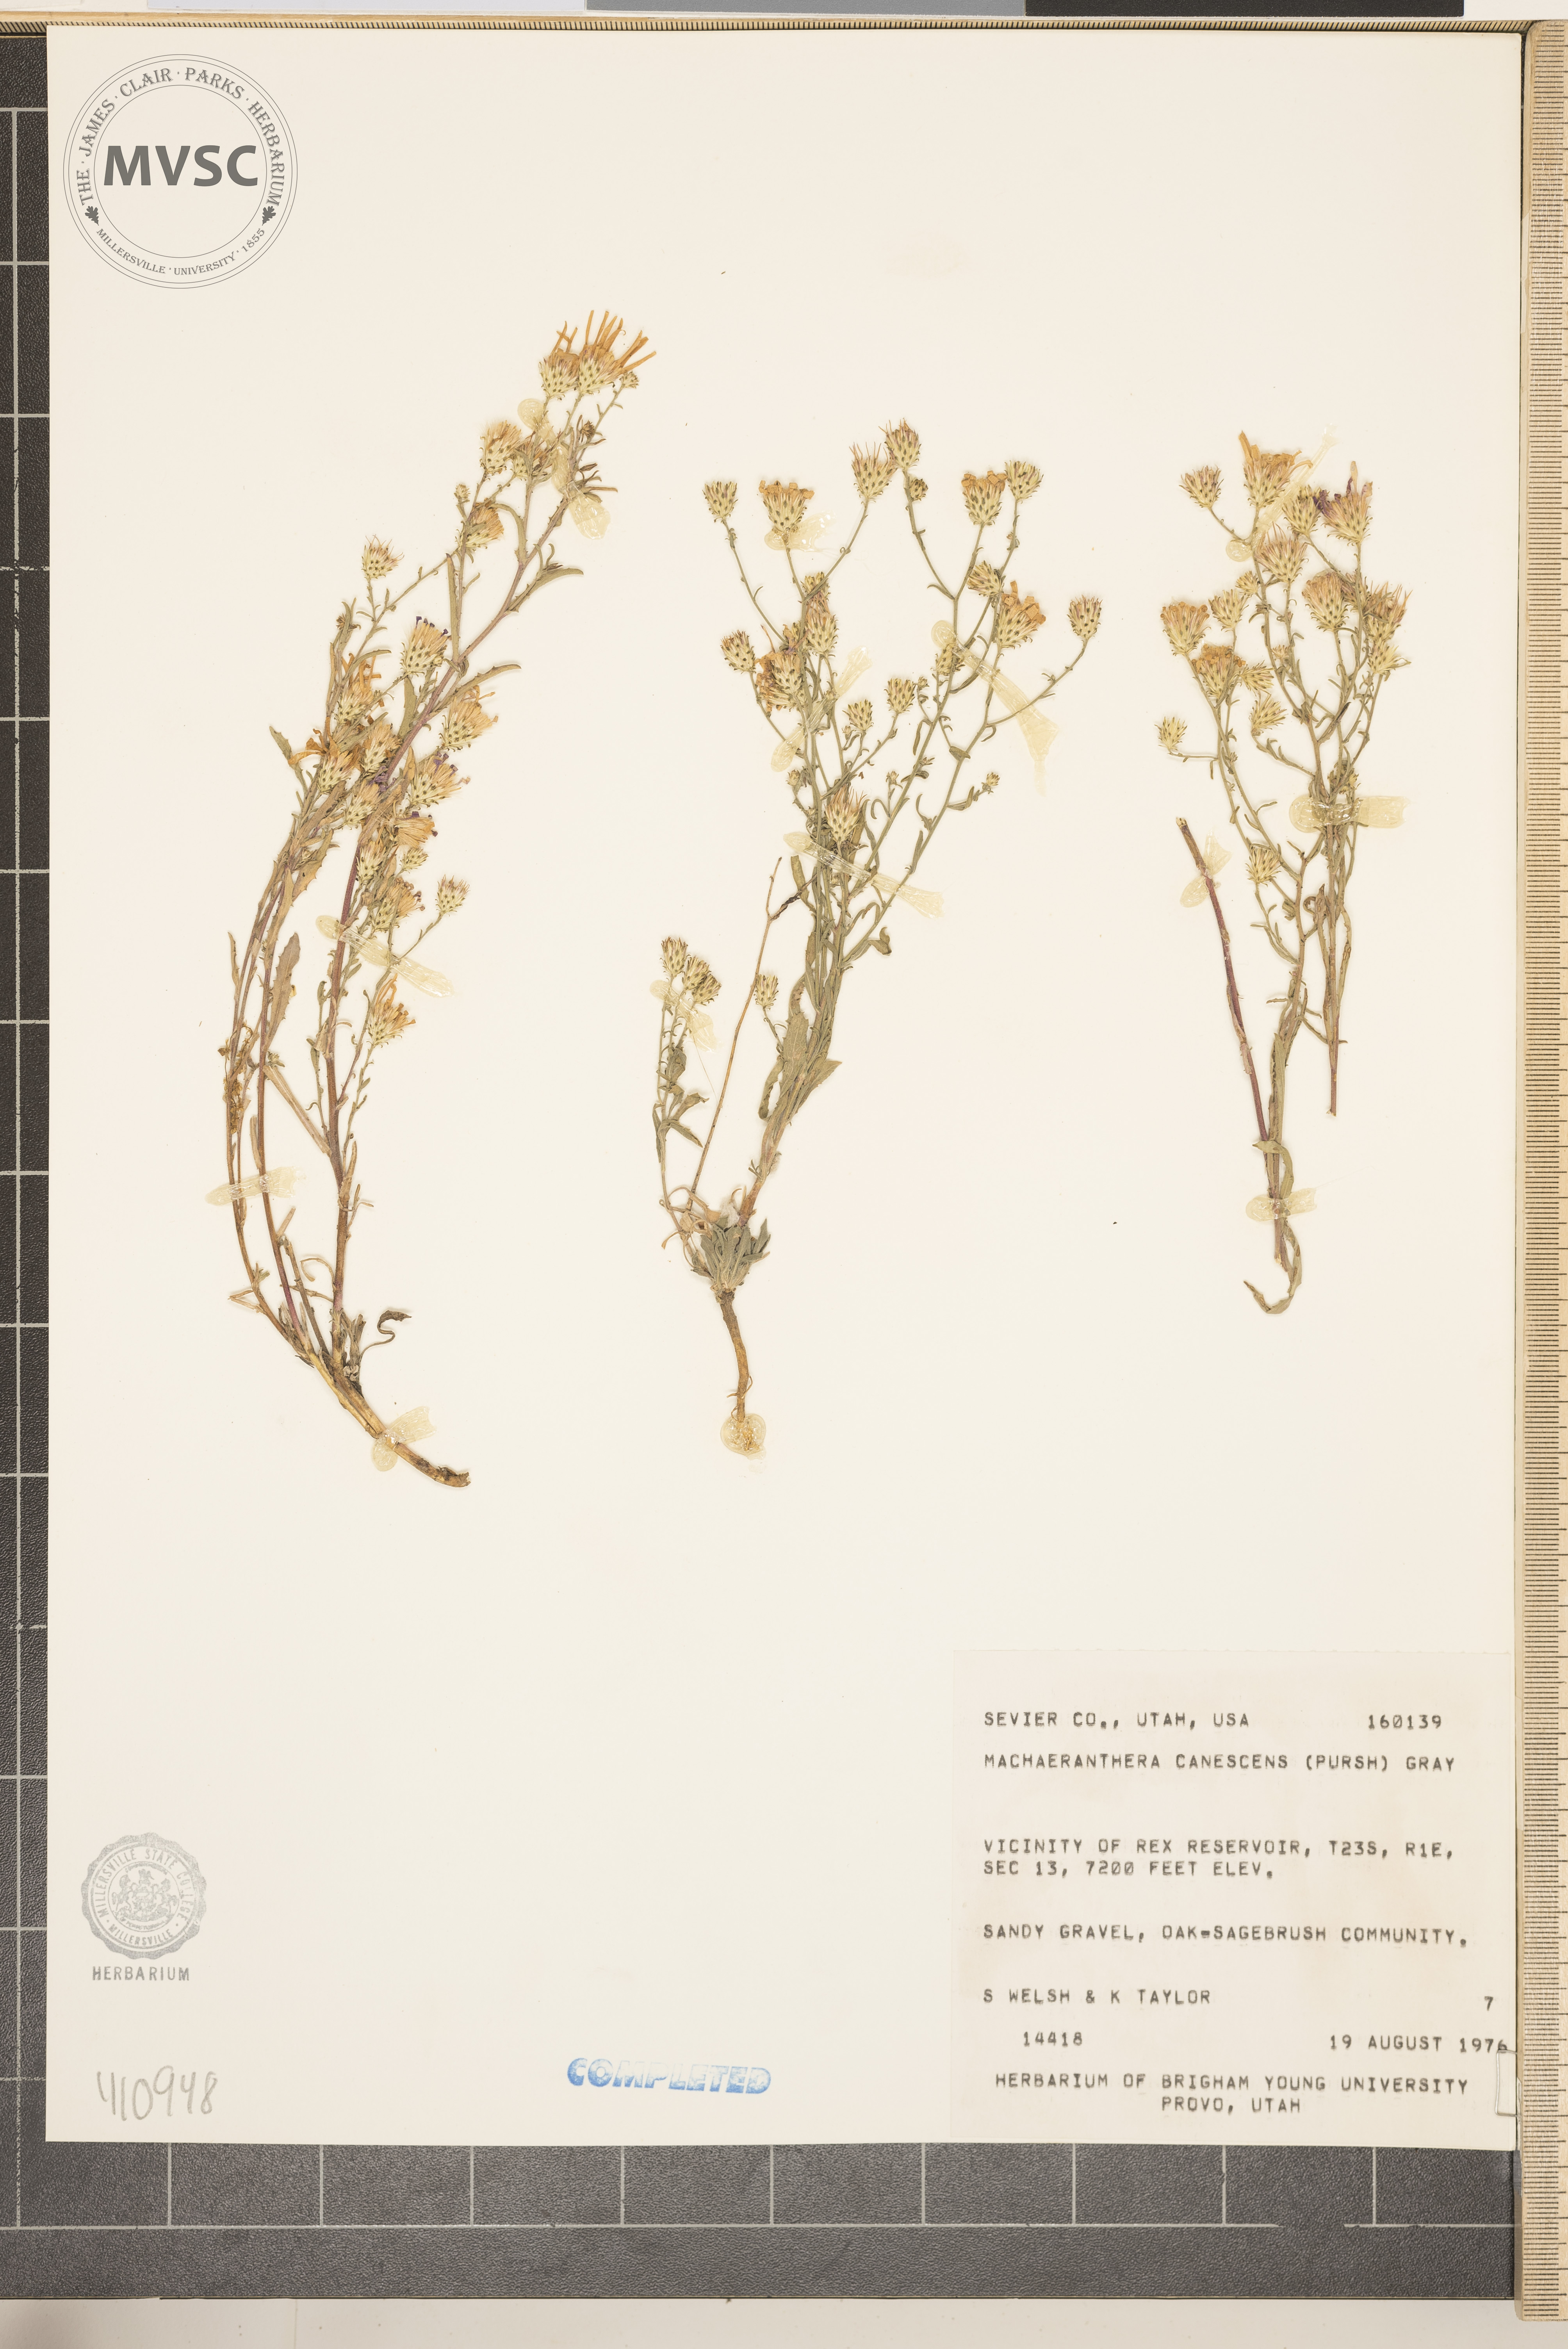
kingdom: Plantae
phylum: Tracheophyta
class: Magnoliopsida
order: Asterales
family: Asteraceae
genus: Dieteria
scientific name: Dieteria canescens
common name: Hoary-aster
